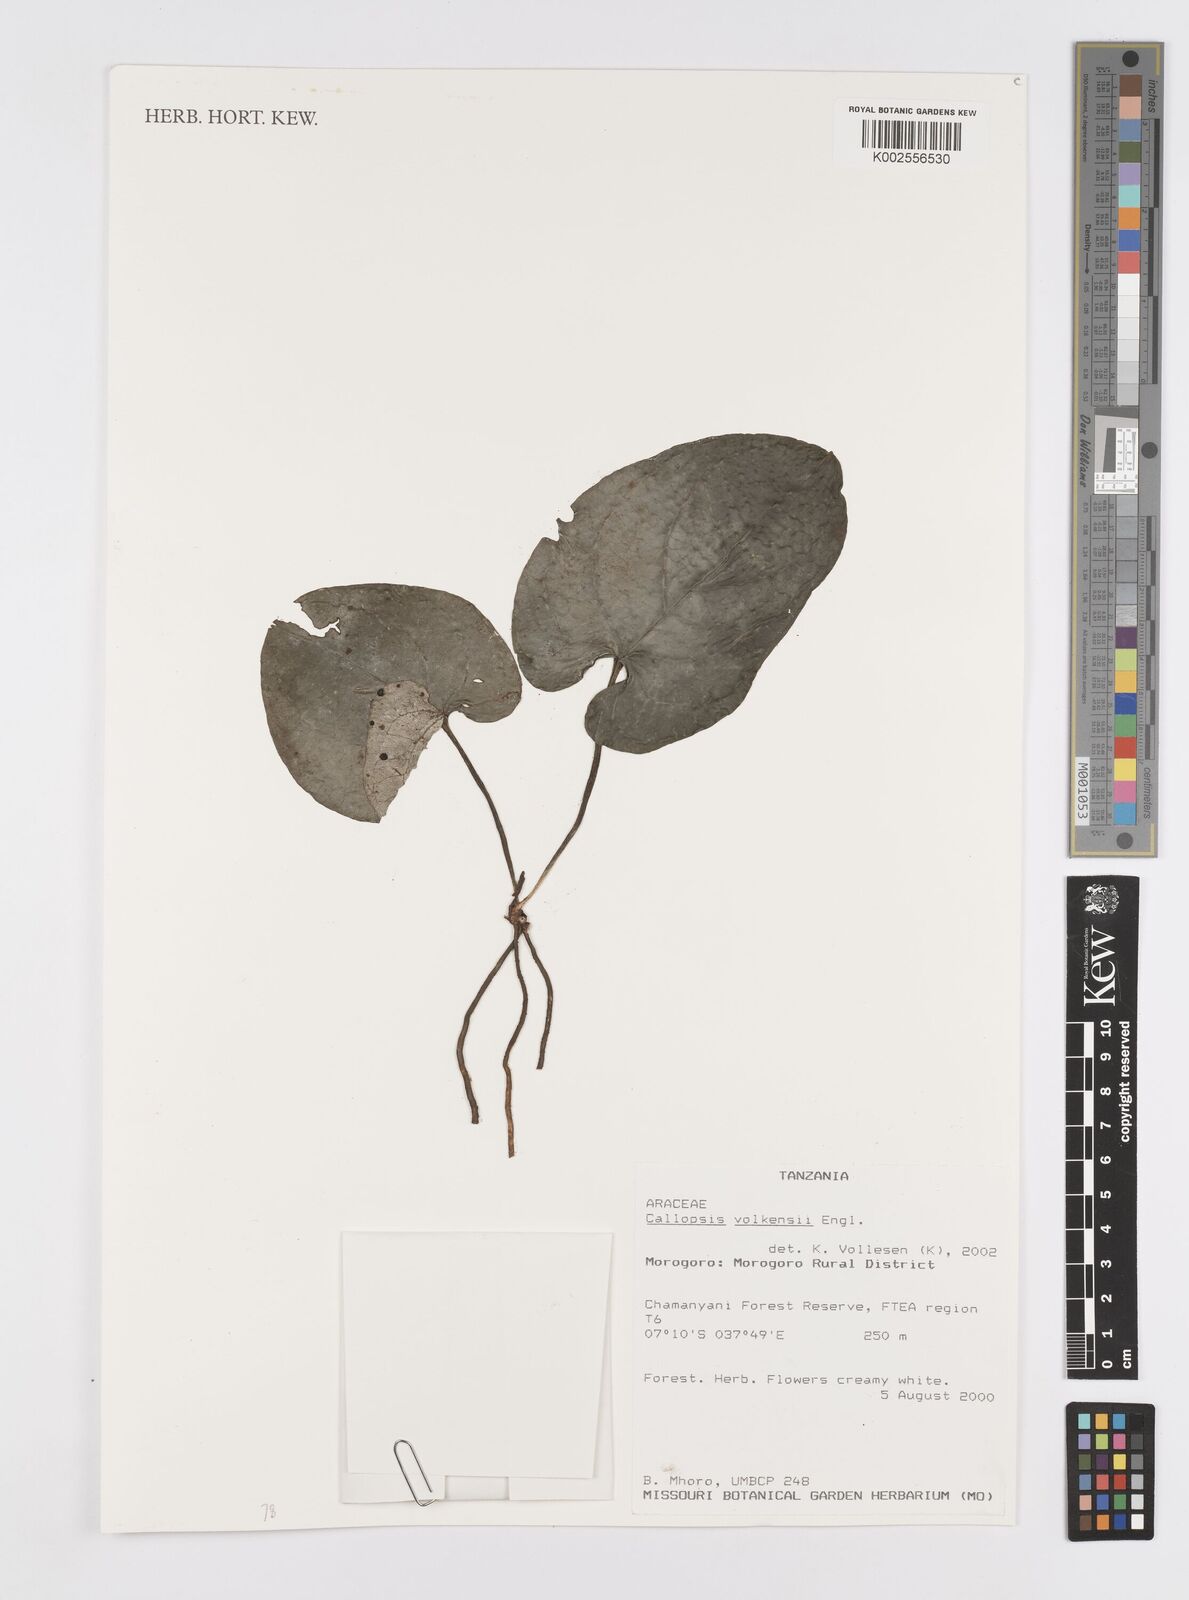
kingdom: Plantae
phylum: Tracheophyta
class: Liliopsida
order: Alismatales
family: Araceae
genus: Callopsis
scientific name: Callopsis volkensii
